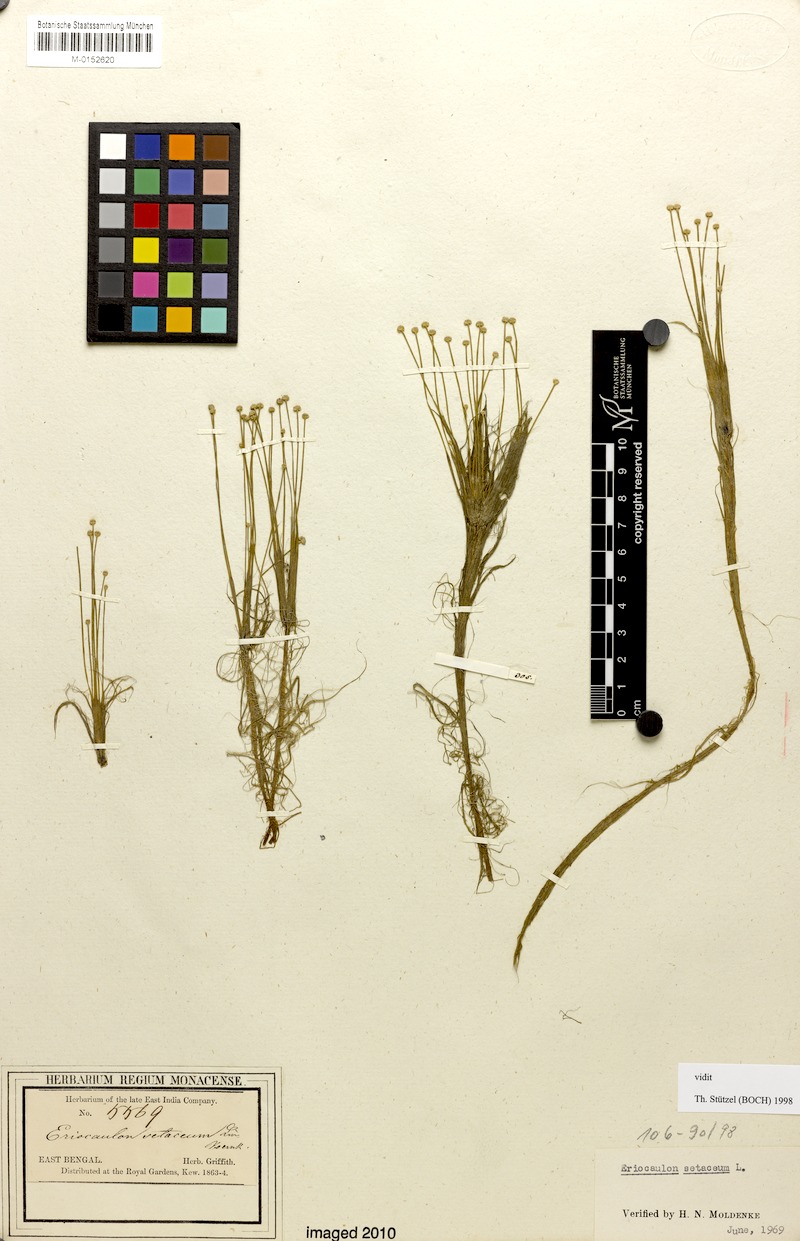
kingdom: Plantae
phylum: Tracheophyta
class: Liliopsida
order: Poales
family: Eriocaulaceae
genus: Eriocaulon
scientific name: Eriocaulon setaceum
